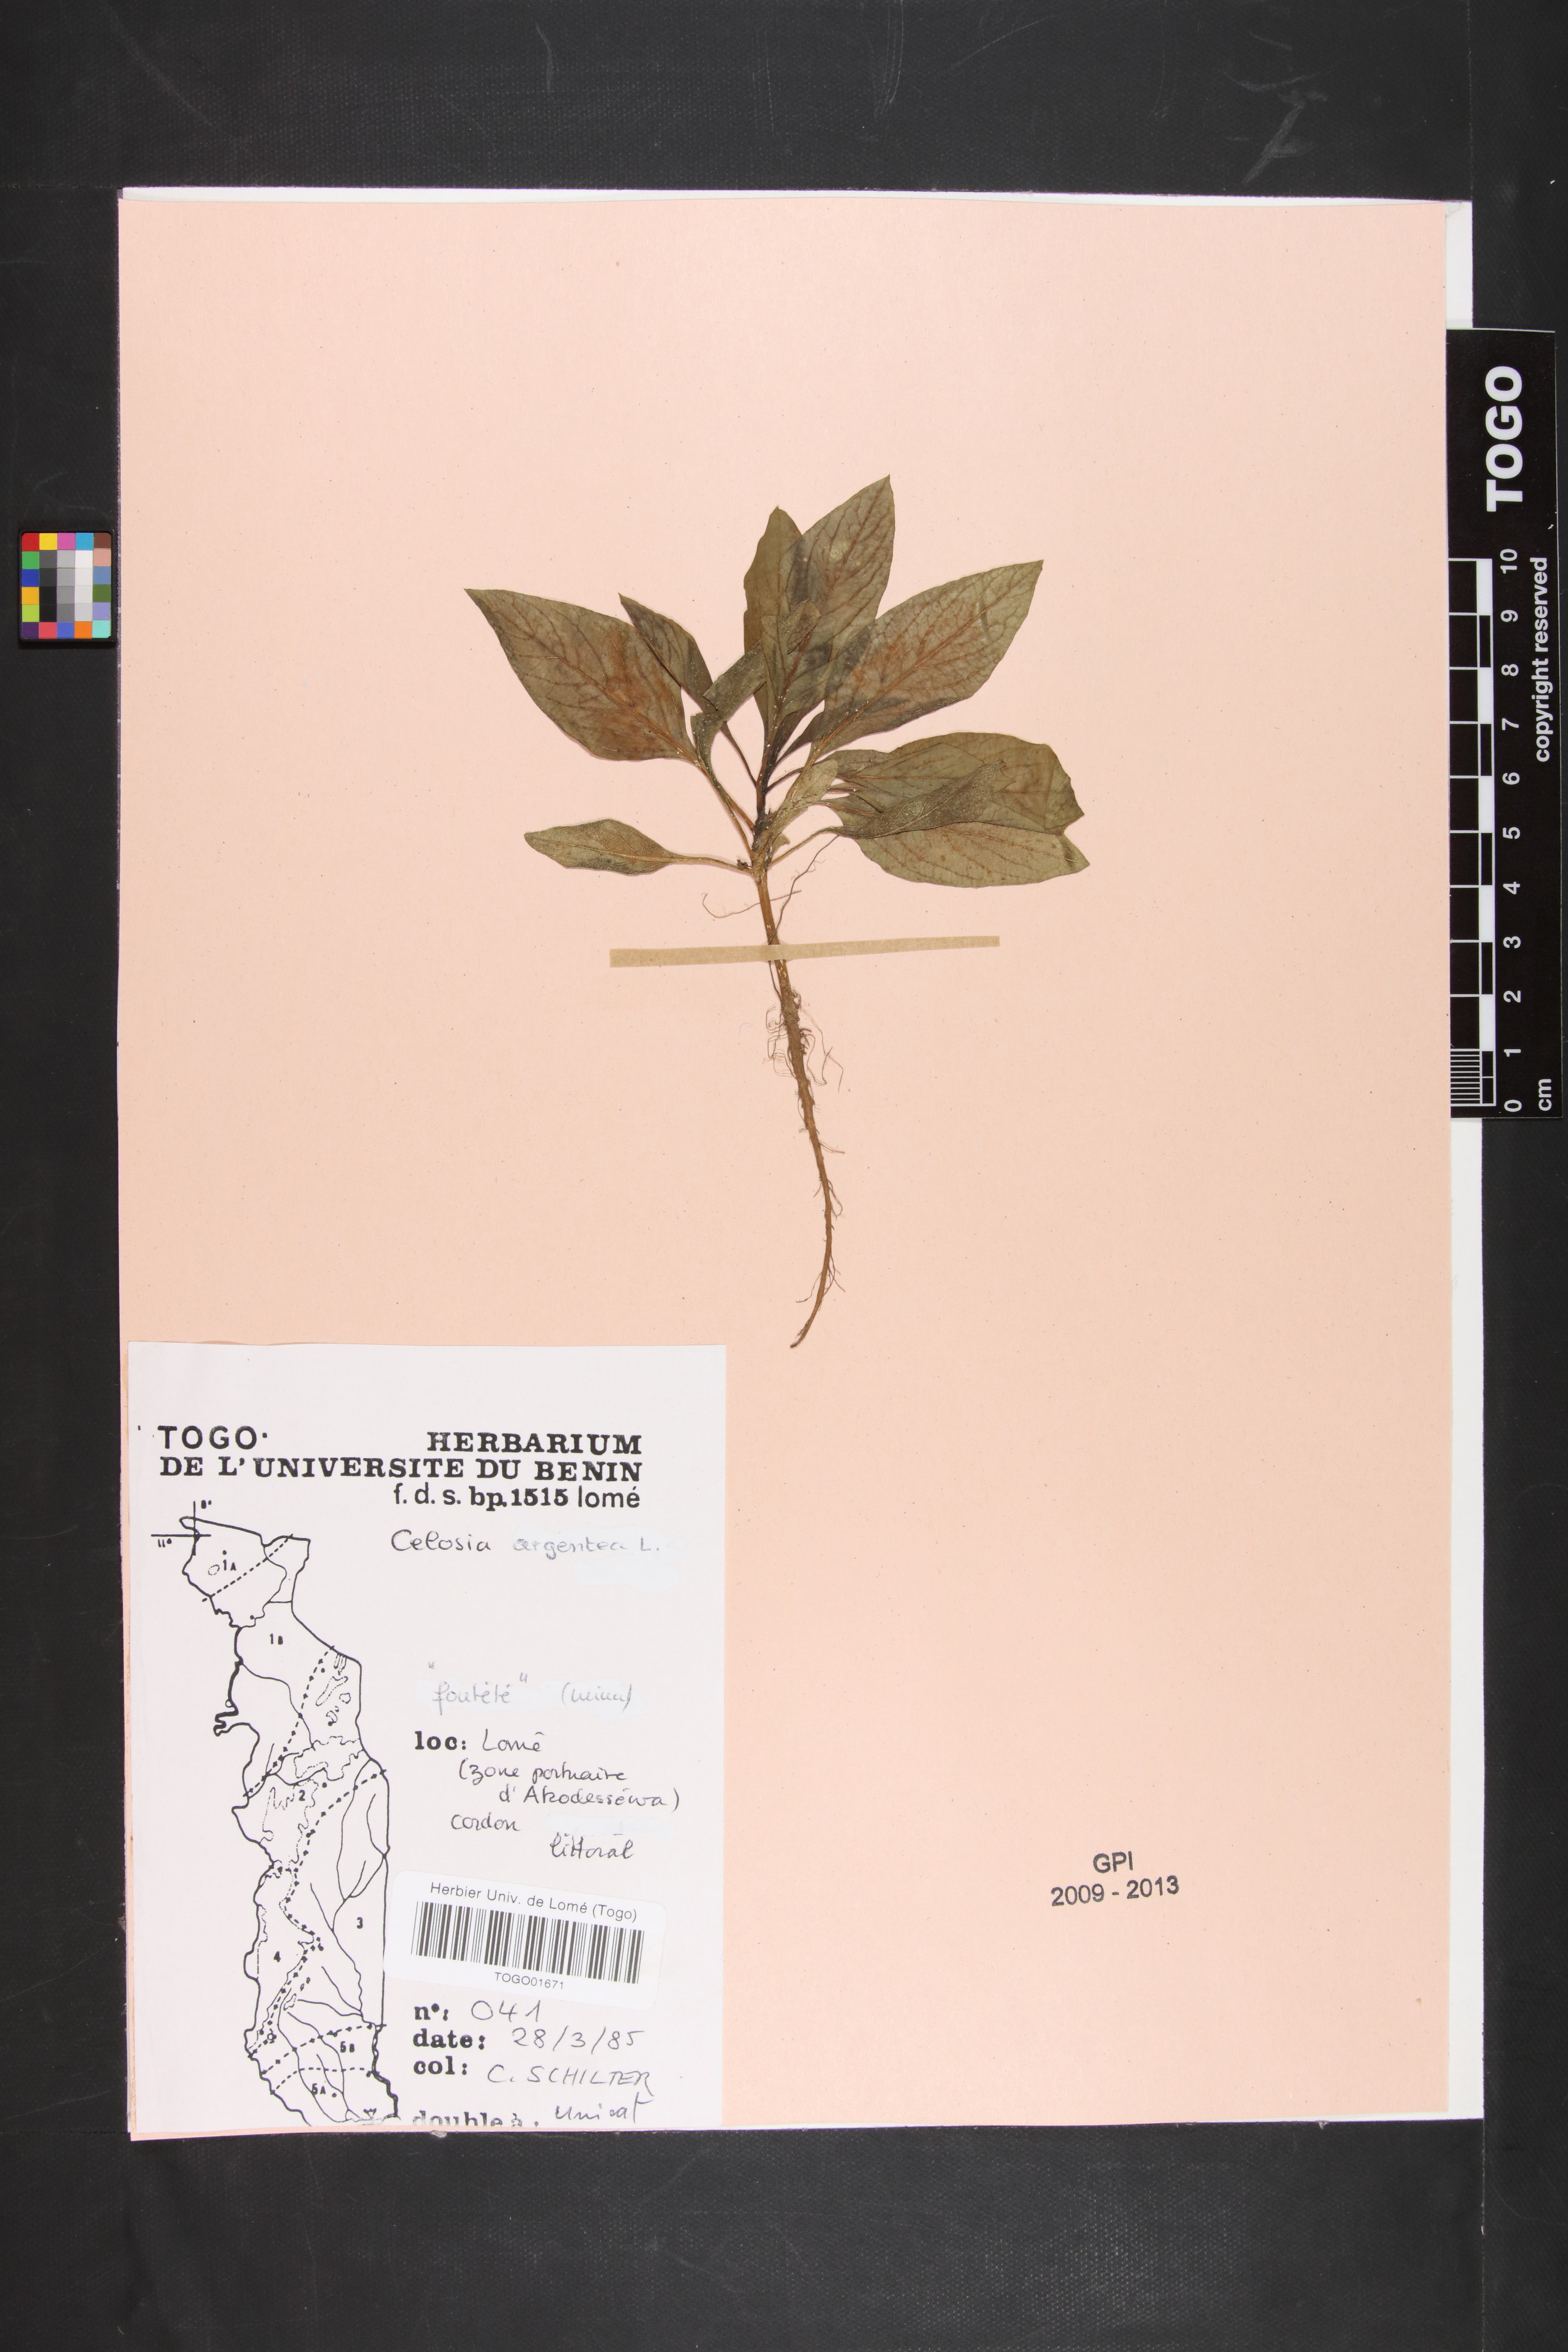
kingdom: Plantae
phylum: Tracheophyta
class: Magnoliopsida
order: Caryophyllales
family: Amaranthaceae
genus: Celosia
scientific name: Celosia argentea
